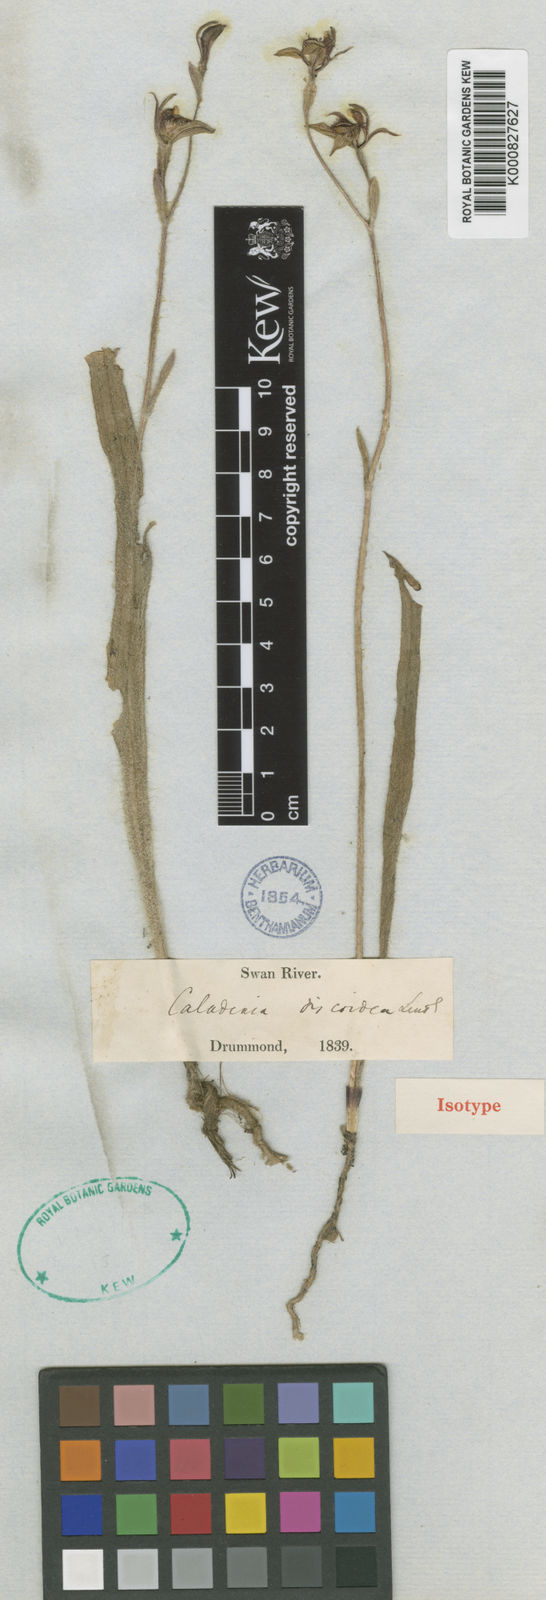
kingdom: Plantae
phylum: Tracheophyta
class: Liliopsida
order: Asparagales
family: Orchidaceae
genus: Caladenia
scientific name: Caladenia discoidea
